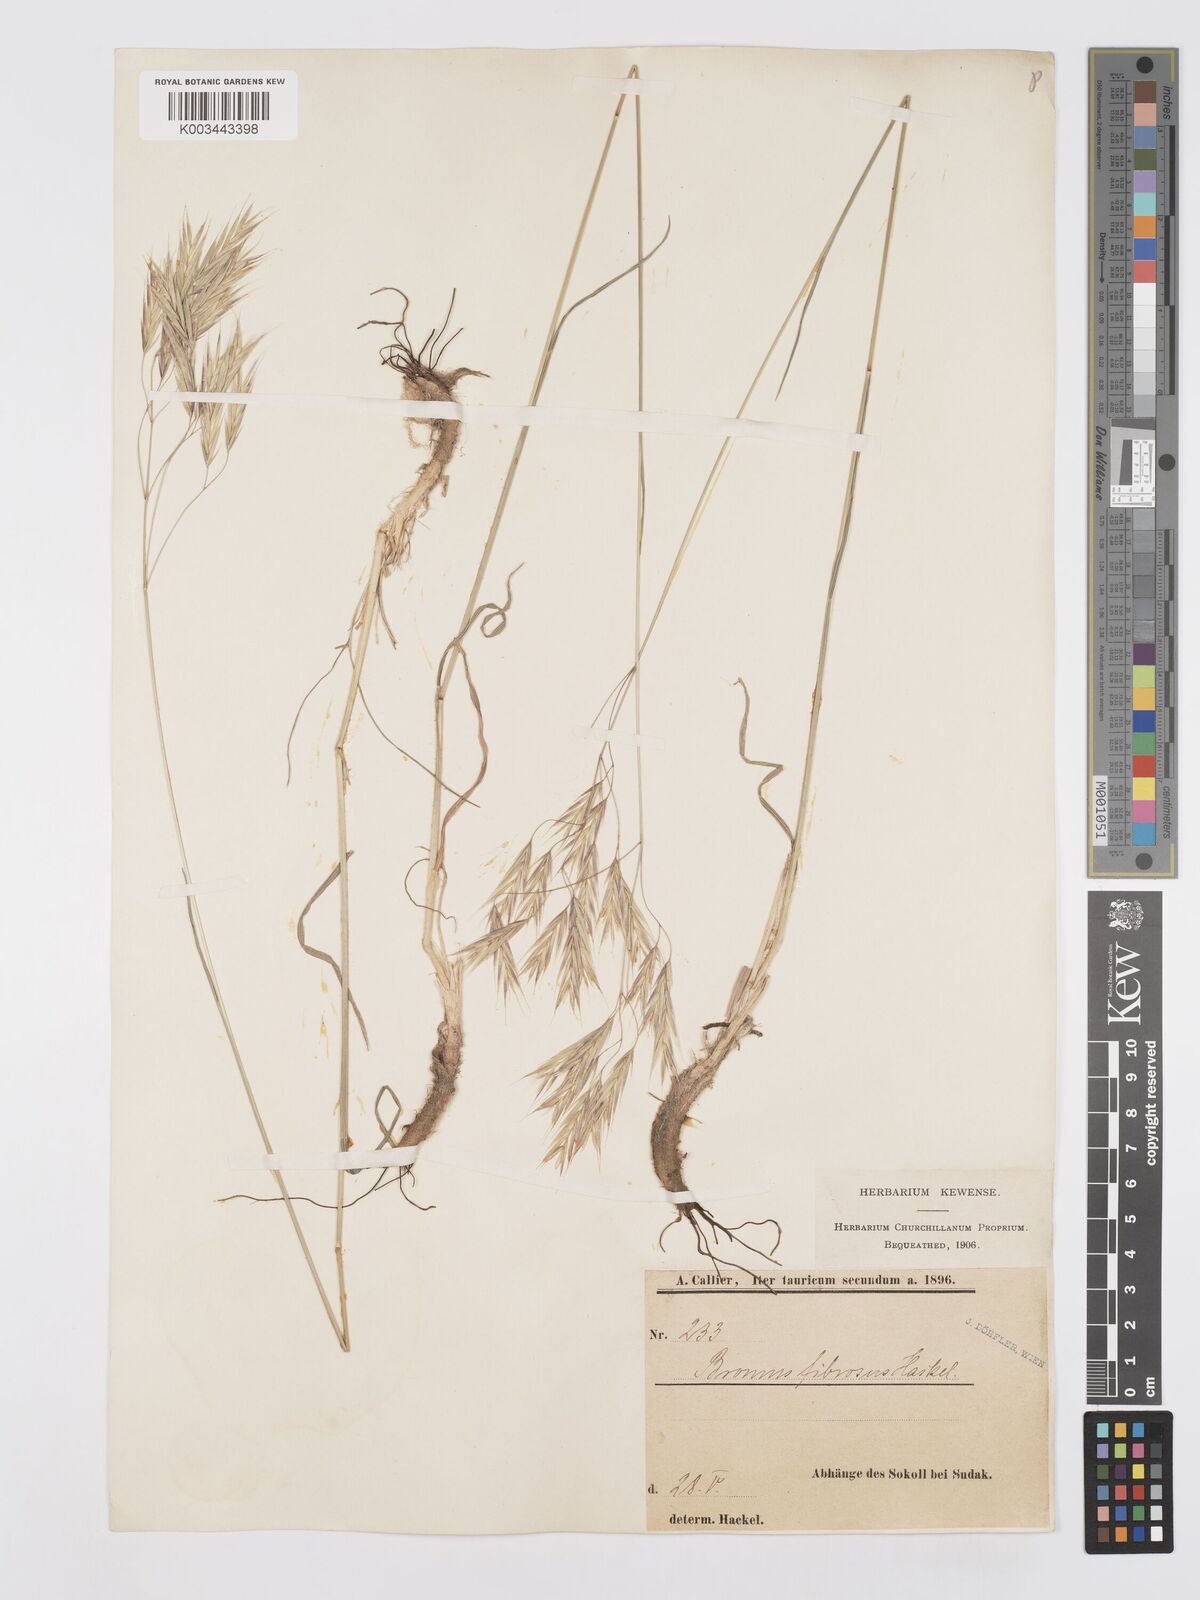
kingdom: Plantae
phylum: Tracheophyta
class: Liliopsida
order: Poales
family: Poaceae
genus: Bromus
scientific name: Bromus riparius
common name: Meadow brome
